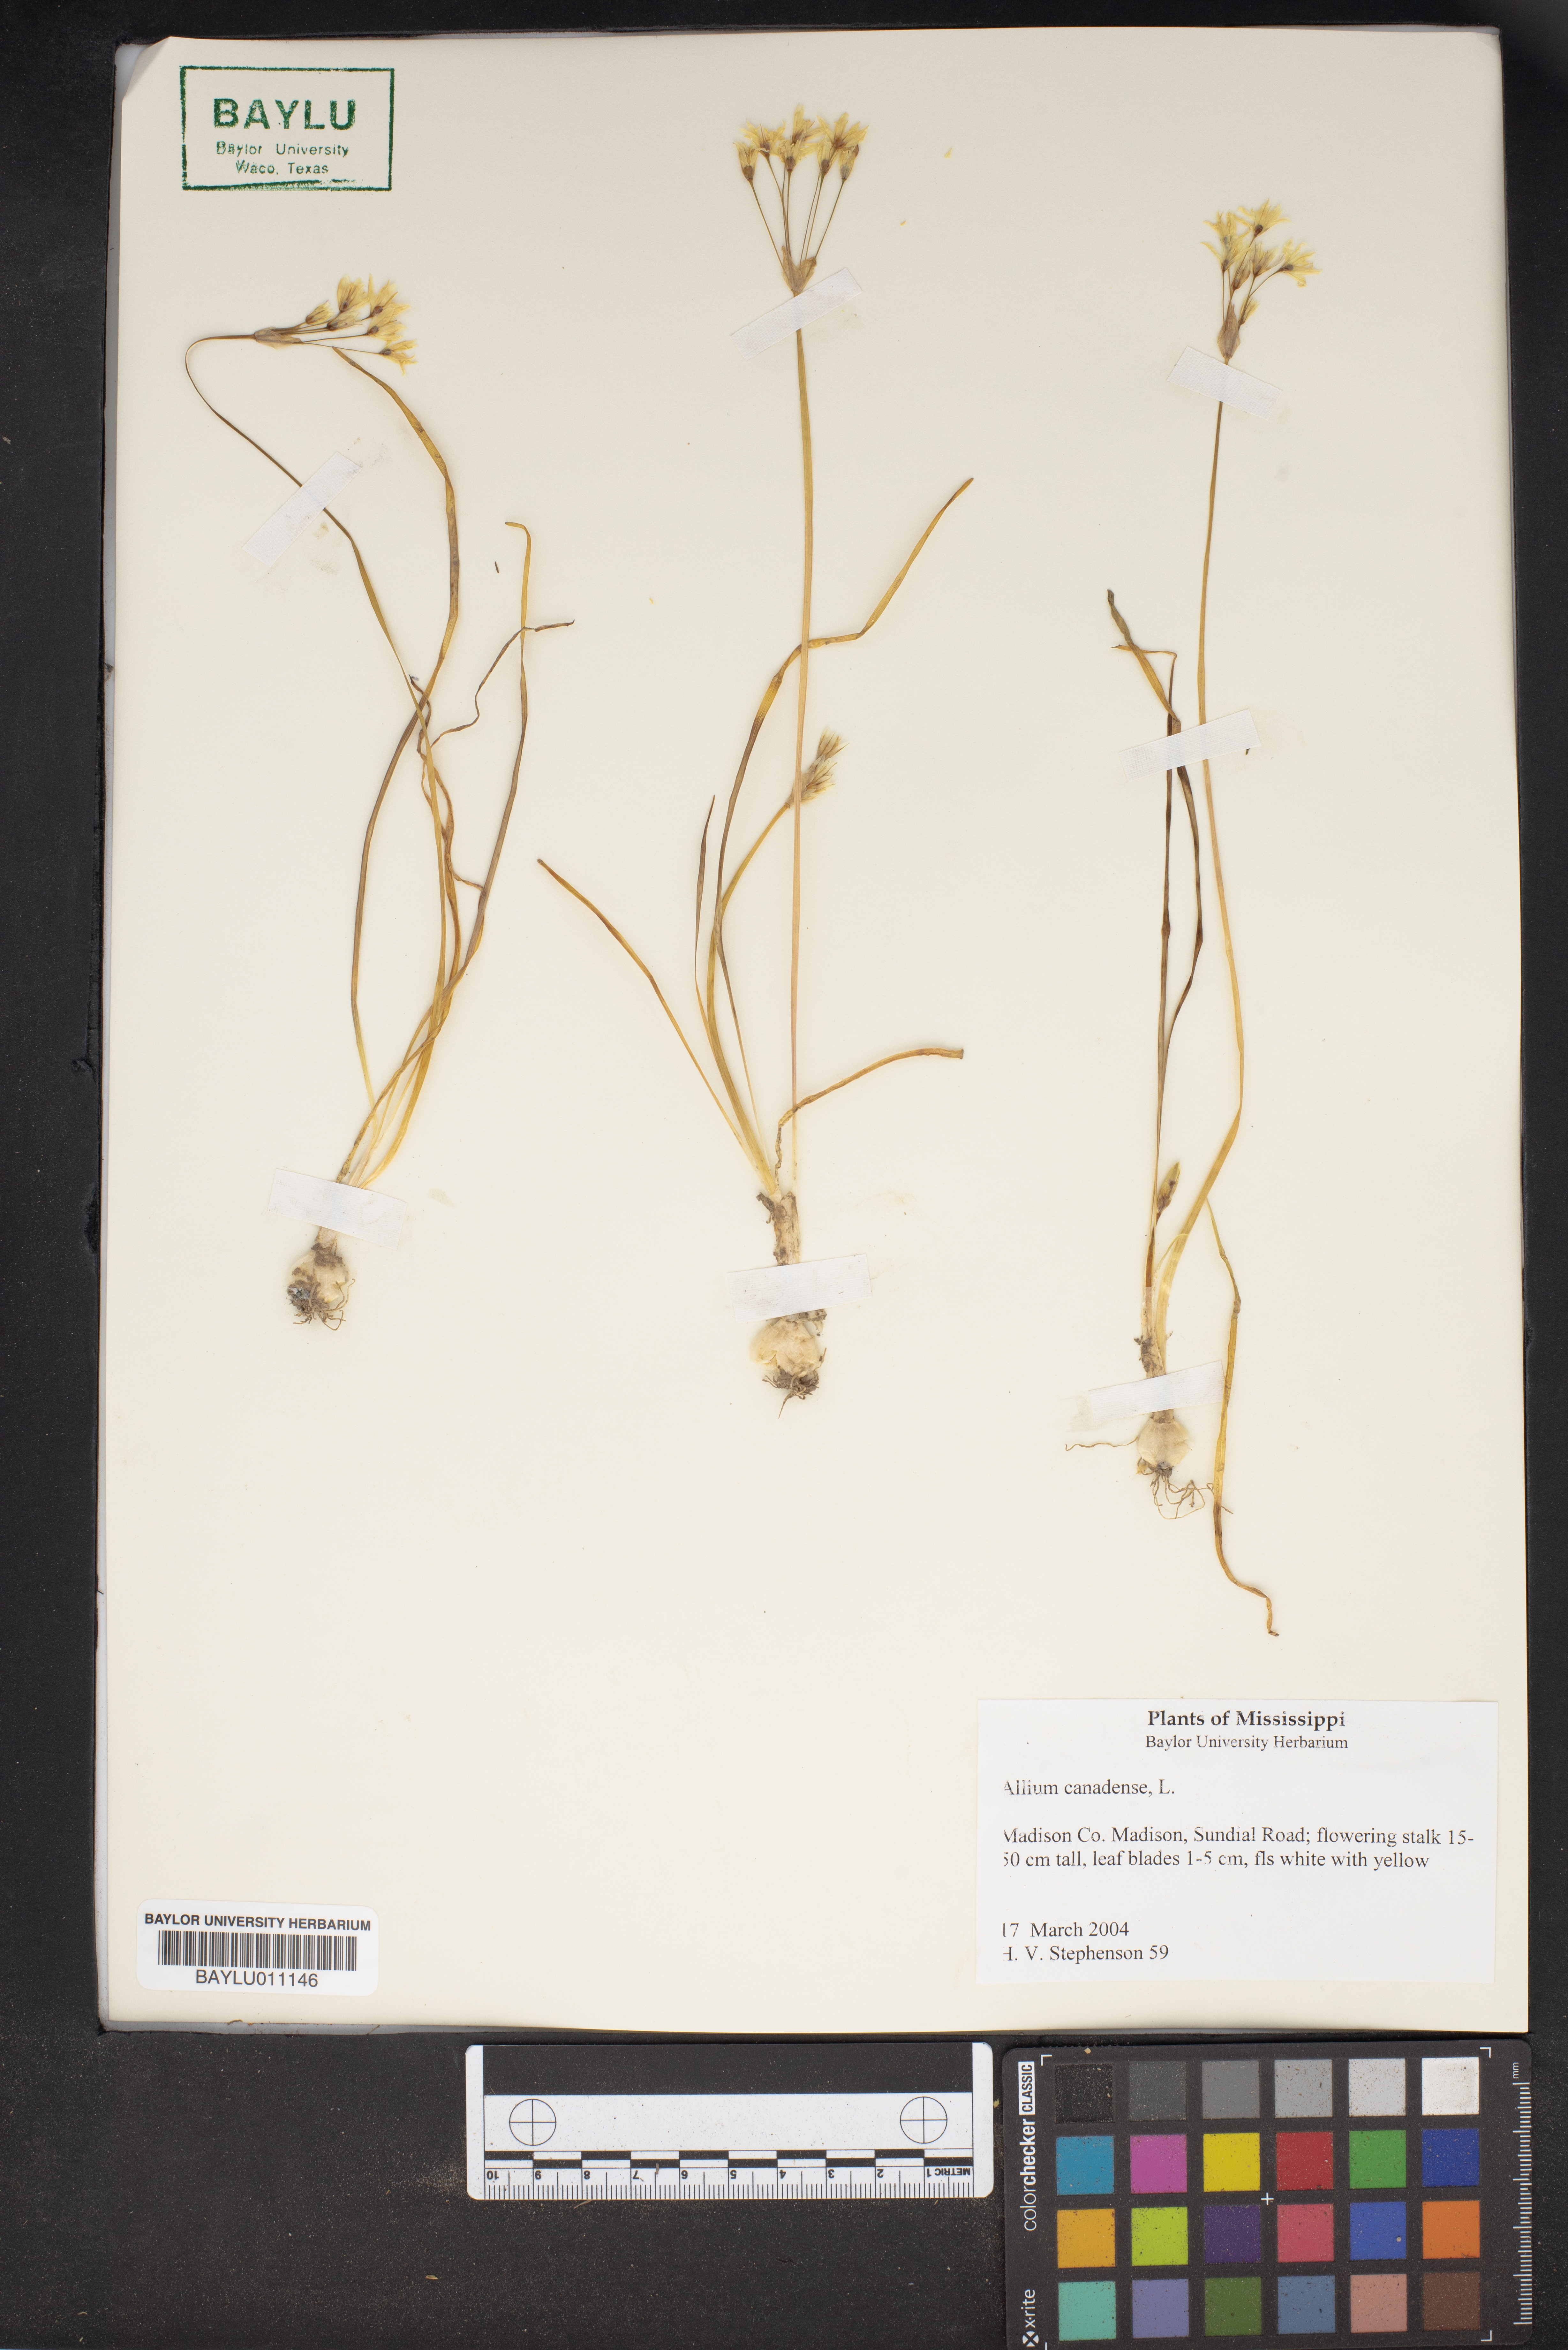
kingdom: Plantae
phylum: Tracheophyta
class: Liliopsida
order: Asparagales
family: Amaryllidaceae
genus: Allium
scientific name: Allium canadense
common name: Meadow garlic
